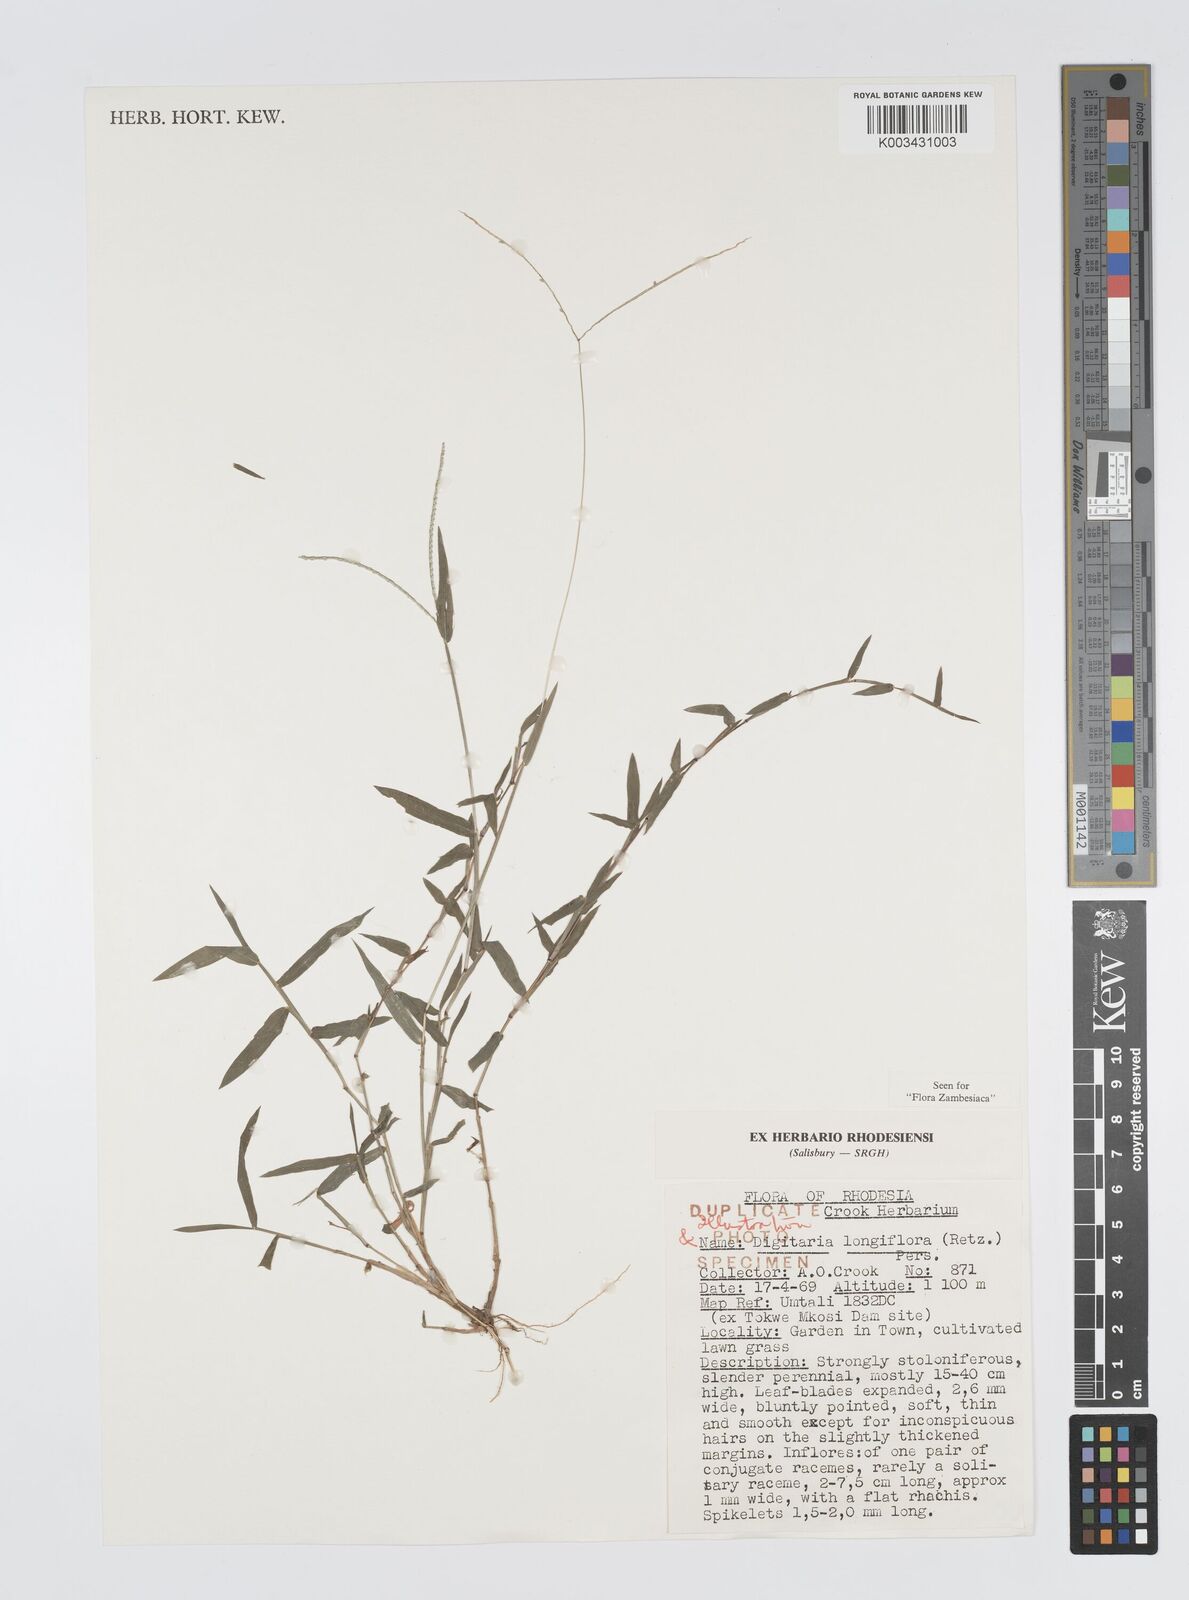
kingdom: Plantae
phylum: Tracheophyta
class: Liliopsida
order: Poales
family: Poaceae
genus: Digitaria
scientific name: Digitaria longiflora
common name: Wire crabgrass
